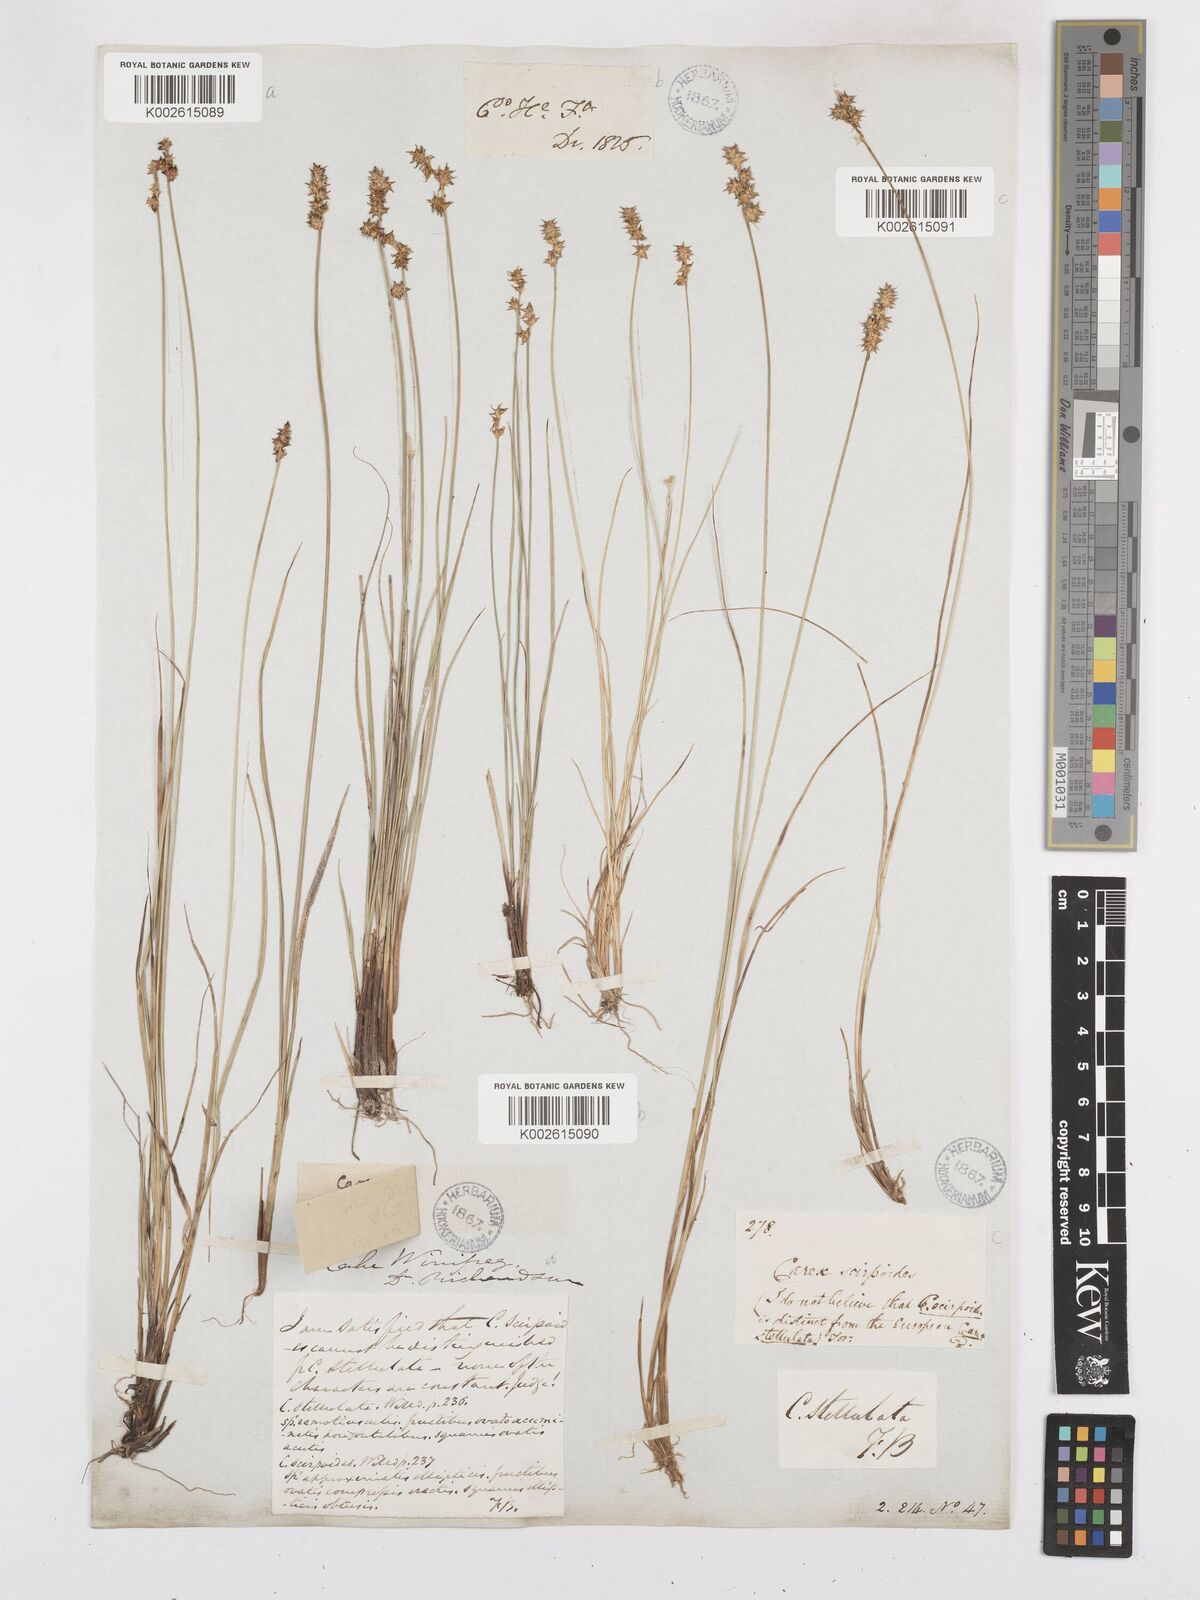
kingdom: Plantae
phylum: Tracheophyta
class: Liliopsida
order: Poales
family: Cyperaceae
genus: Carex
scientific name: Carex echinata
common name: Star sedge
